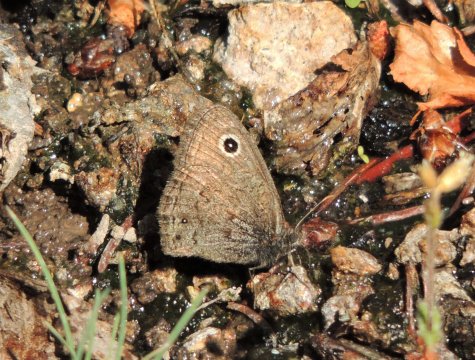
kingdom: Animalia
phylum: Arthropoda
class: Insecta
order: Lepidoptera
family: Nymphalidae
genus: Cercyonis
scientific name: Cercyonis oetus
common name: Small Wood-Nymph
